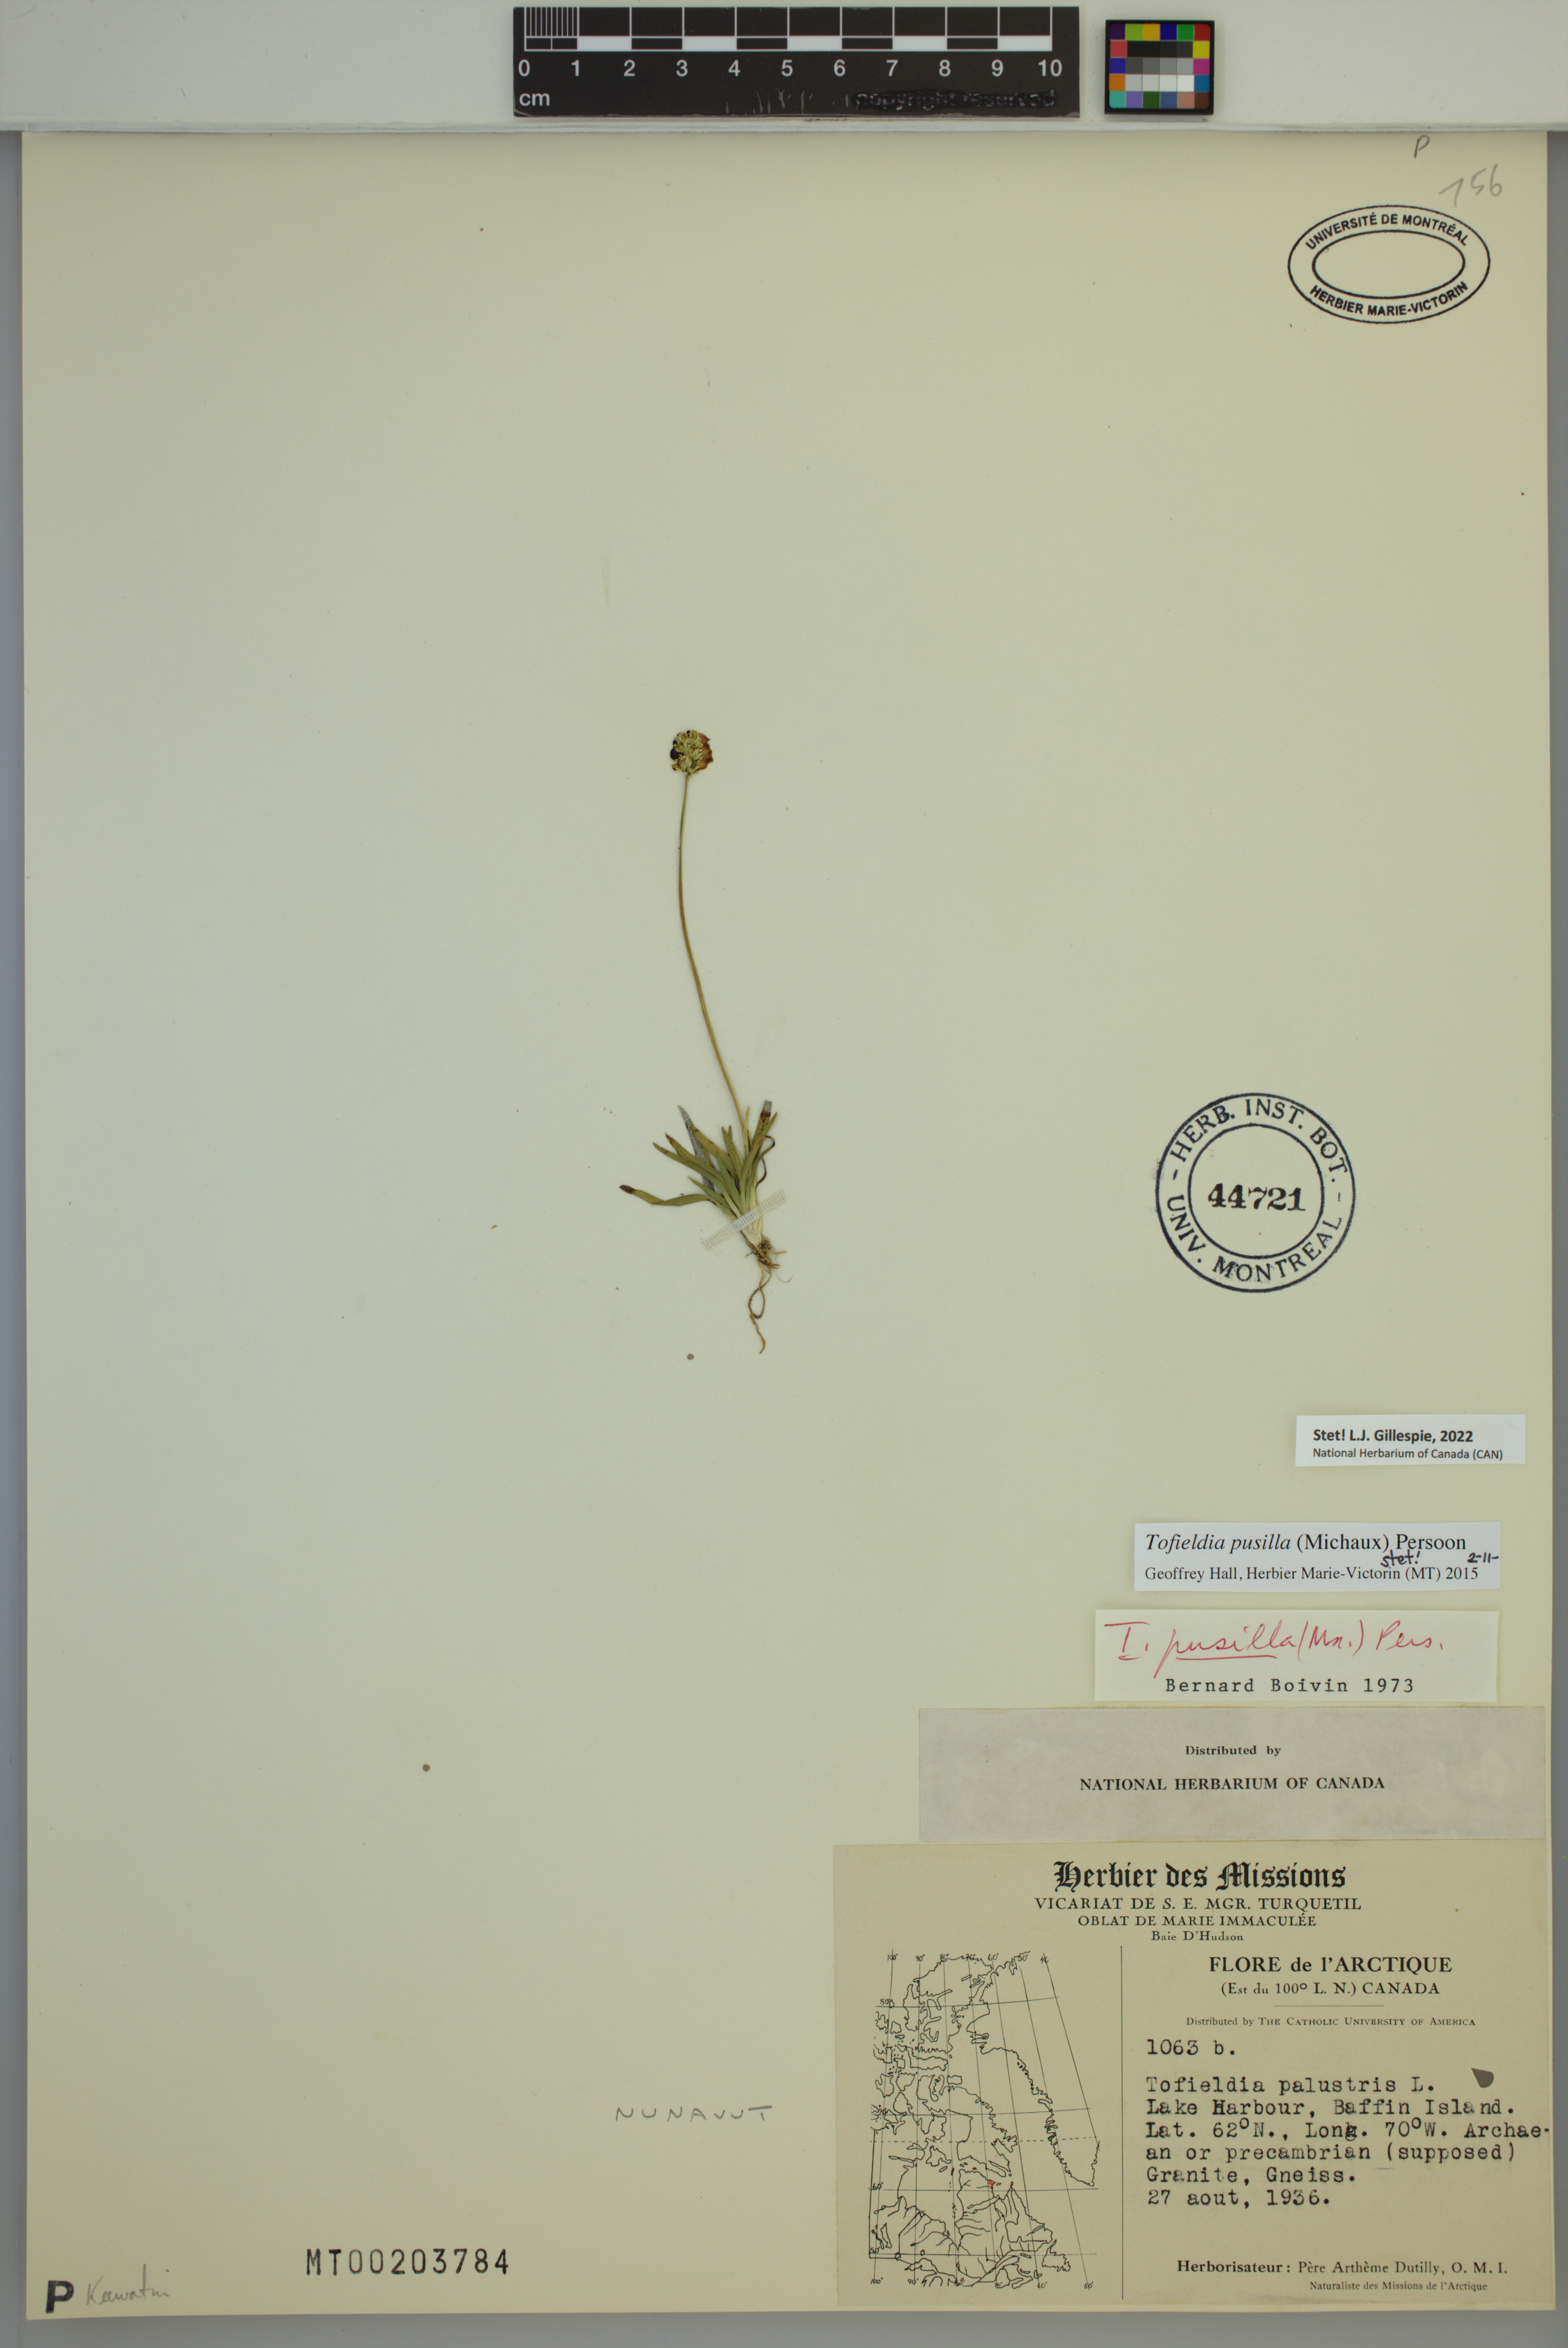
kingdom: Plantae
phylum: Tracheophyta
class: Liliopsida
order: Alismatales
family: Tofieldiaceae
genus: Tofieldia
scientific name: Tofieldia pusilla
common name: Scottish false asphodel
